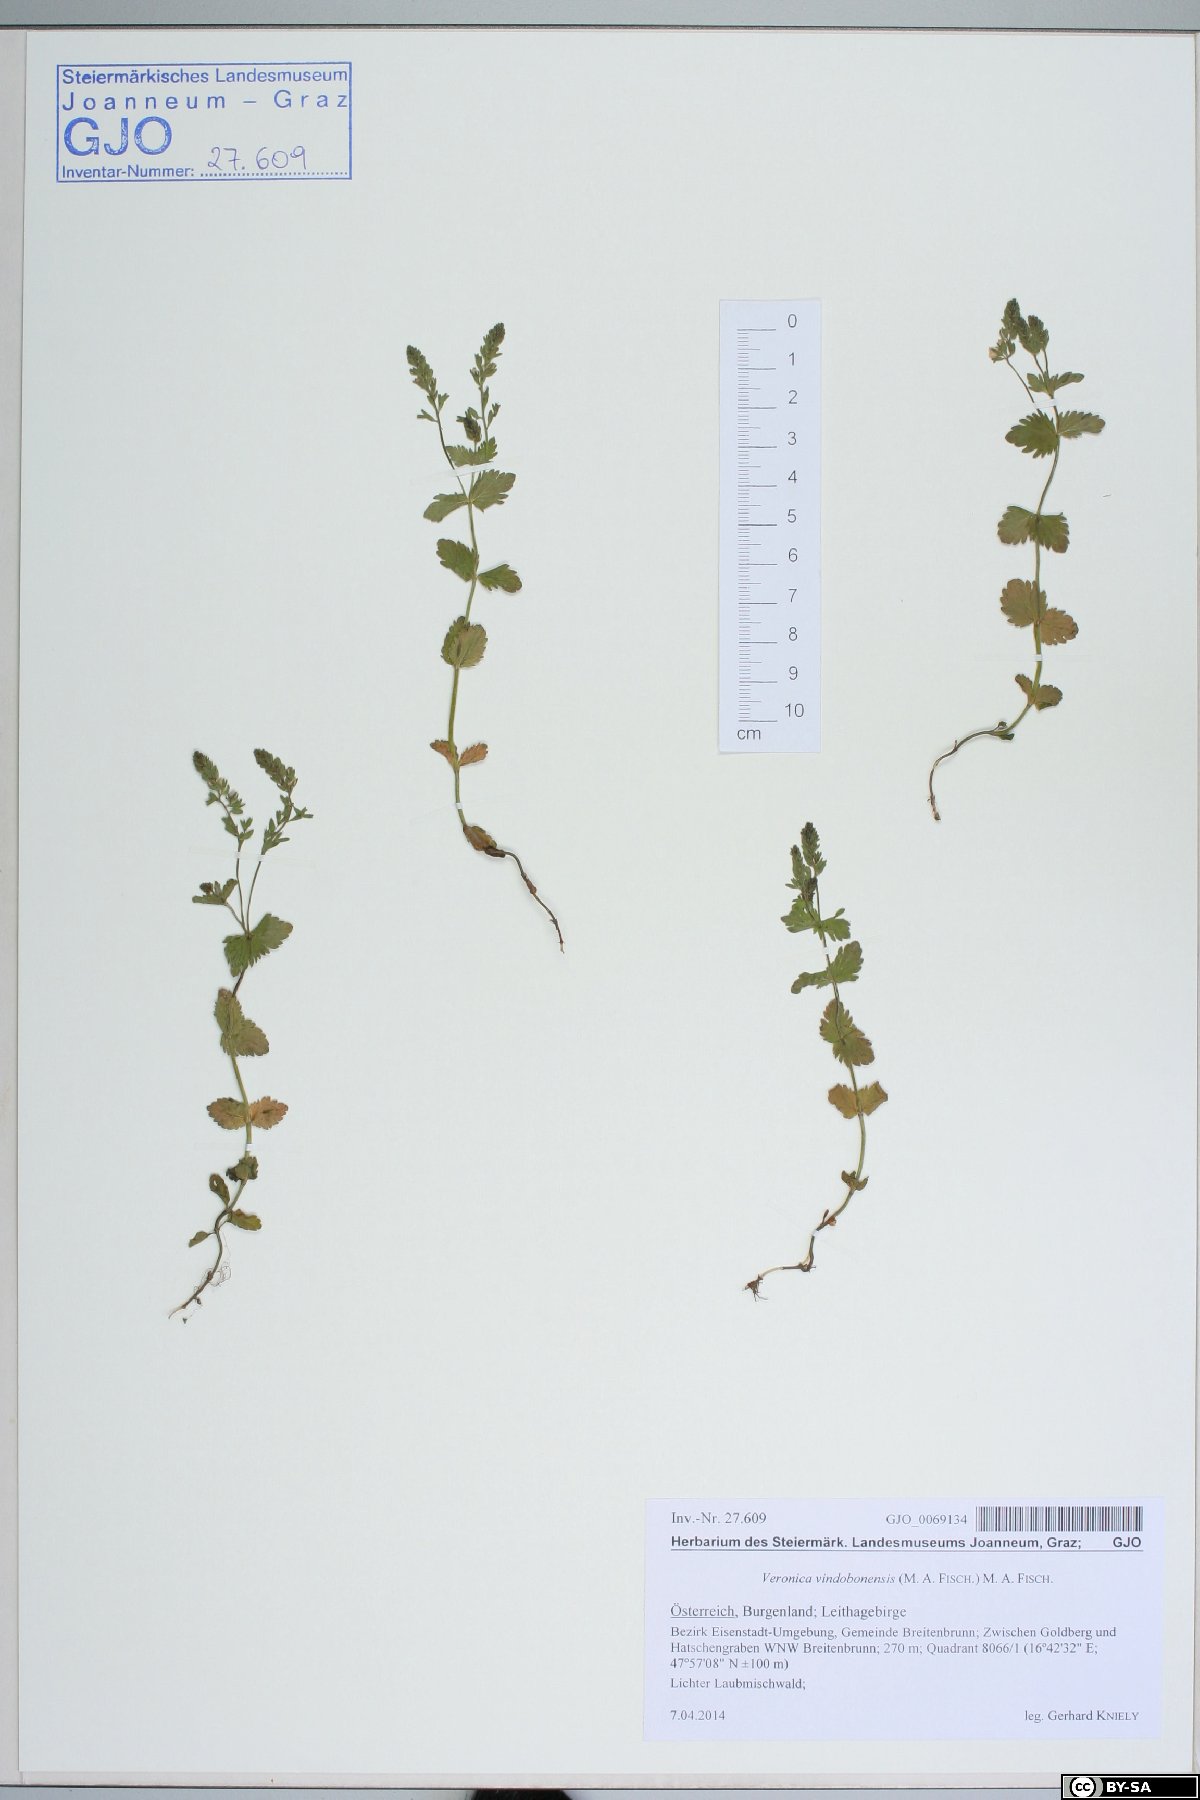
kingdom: Plantae
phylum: Tracheophyta
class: Magnoliopsida
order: Lamiales
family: Plantaginaceae
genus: Veronica
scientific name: Veronica vindobonensis
